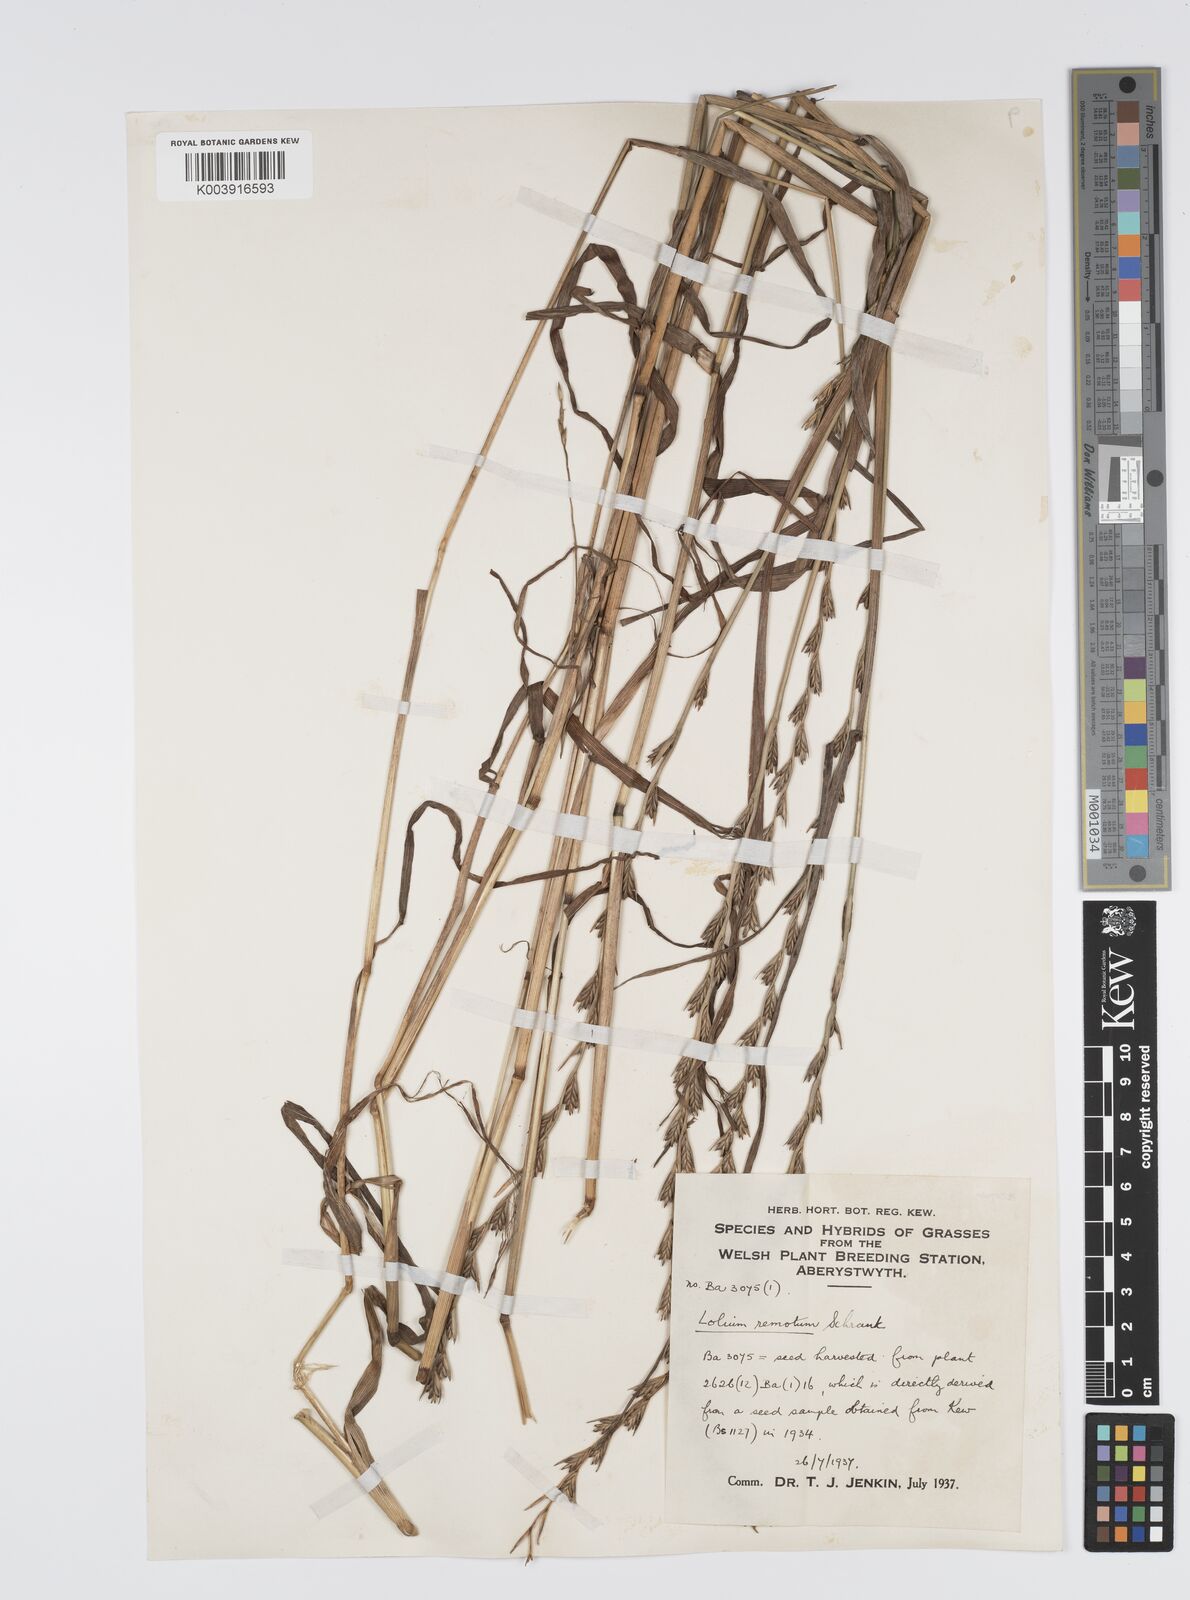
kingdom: Plantae
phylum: Tracheophyta
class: Liliopsida
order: Poales
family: Poaceae
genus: Lolium
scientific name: Lolium remotum
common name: Flaxfield rye-grass
